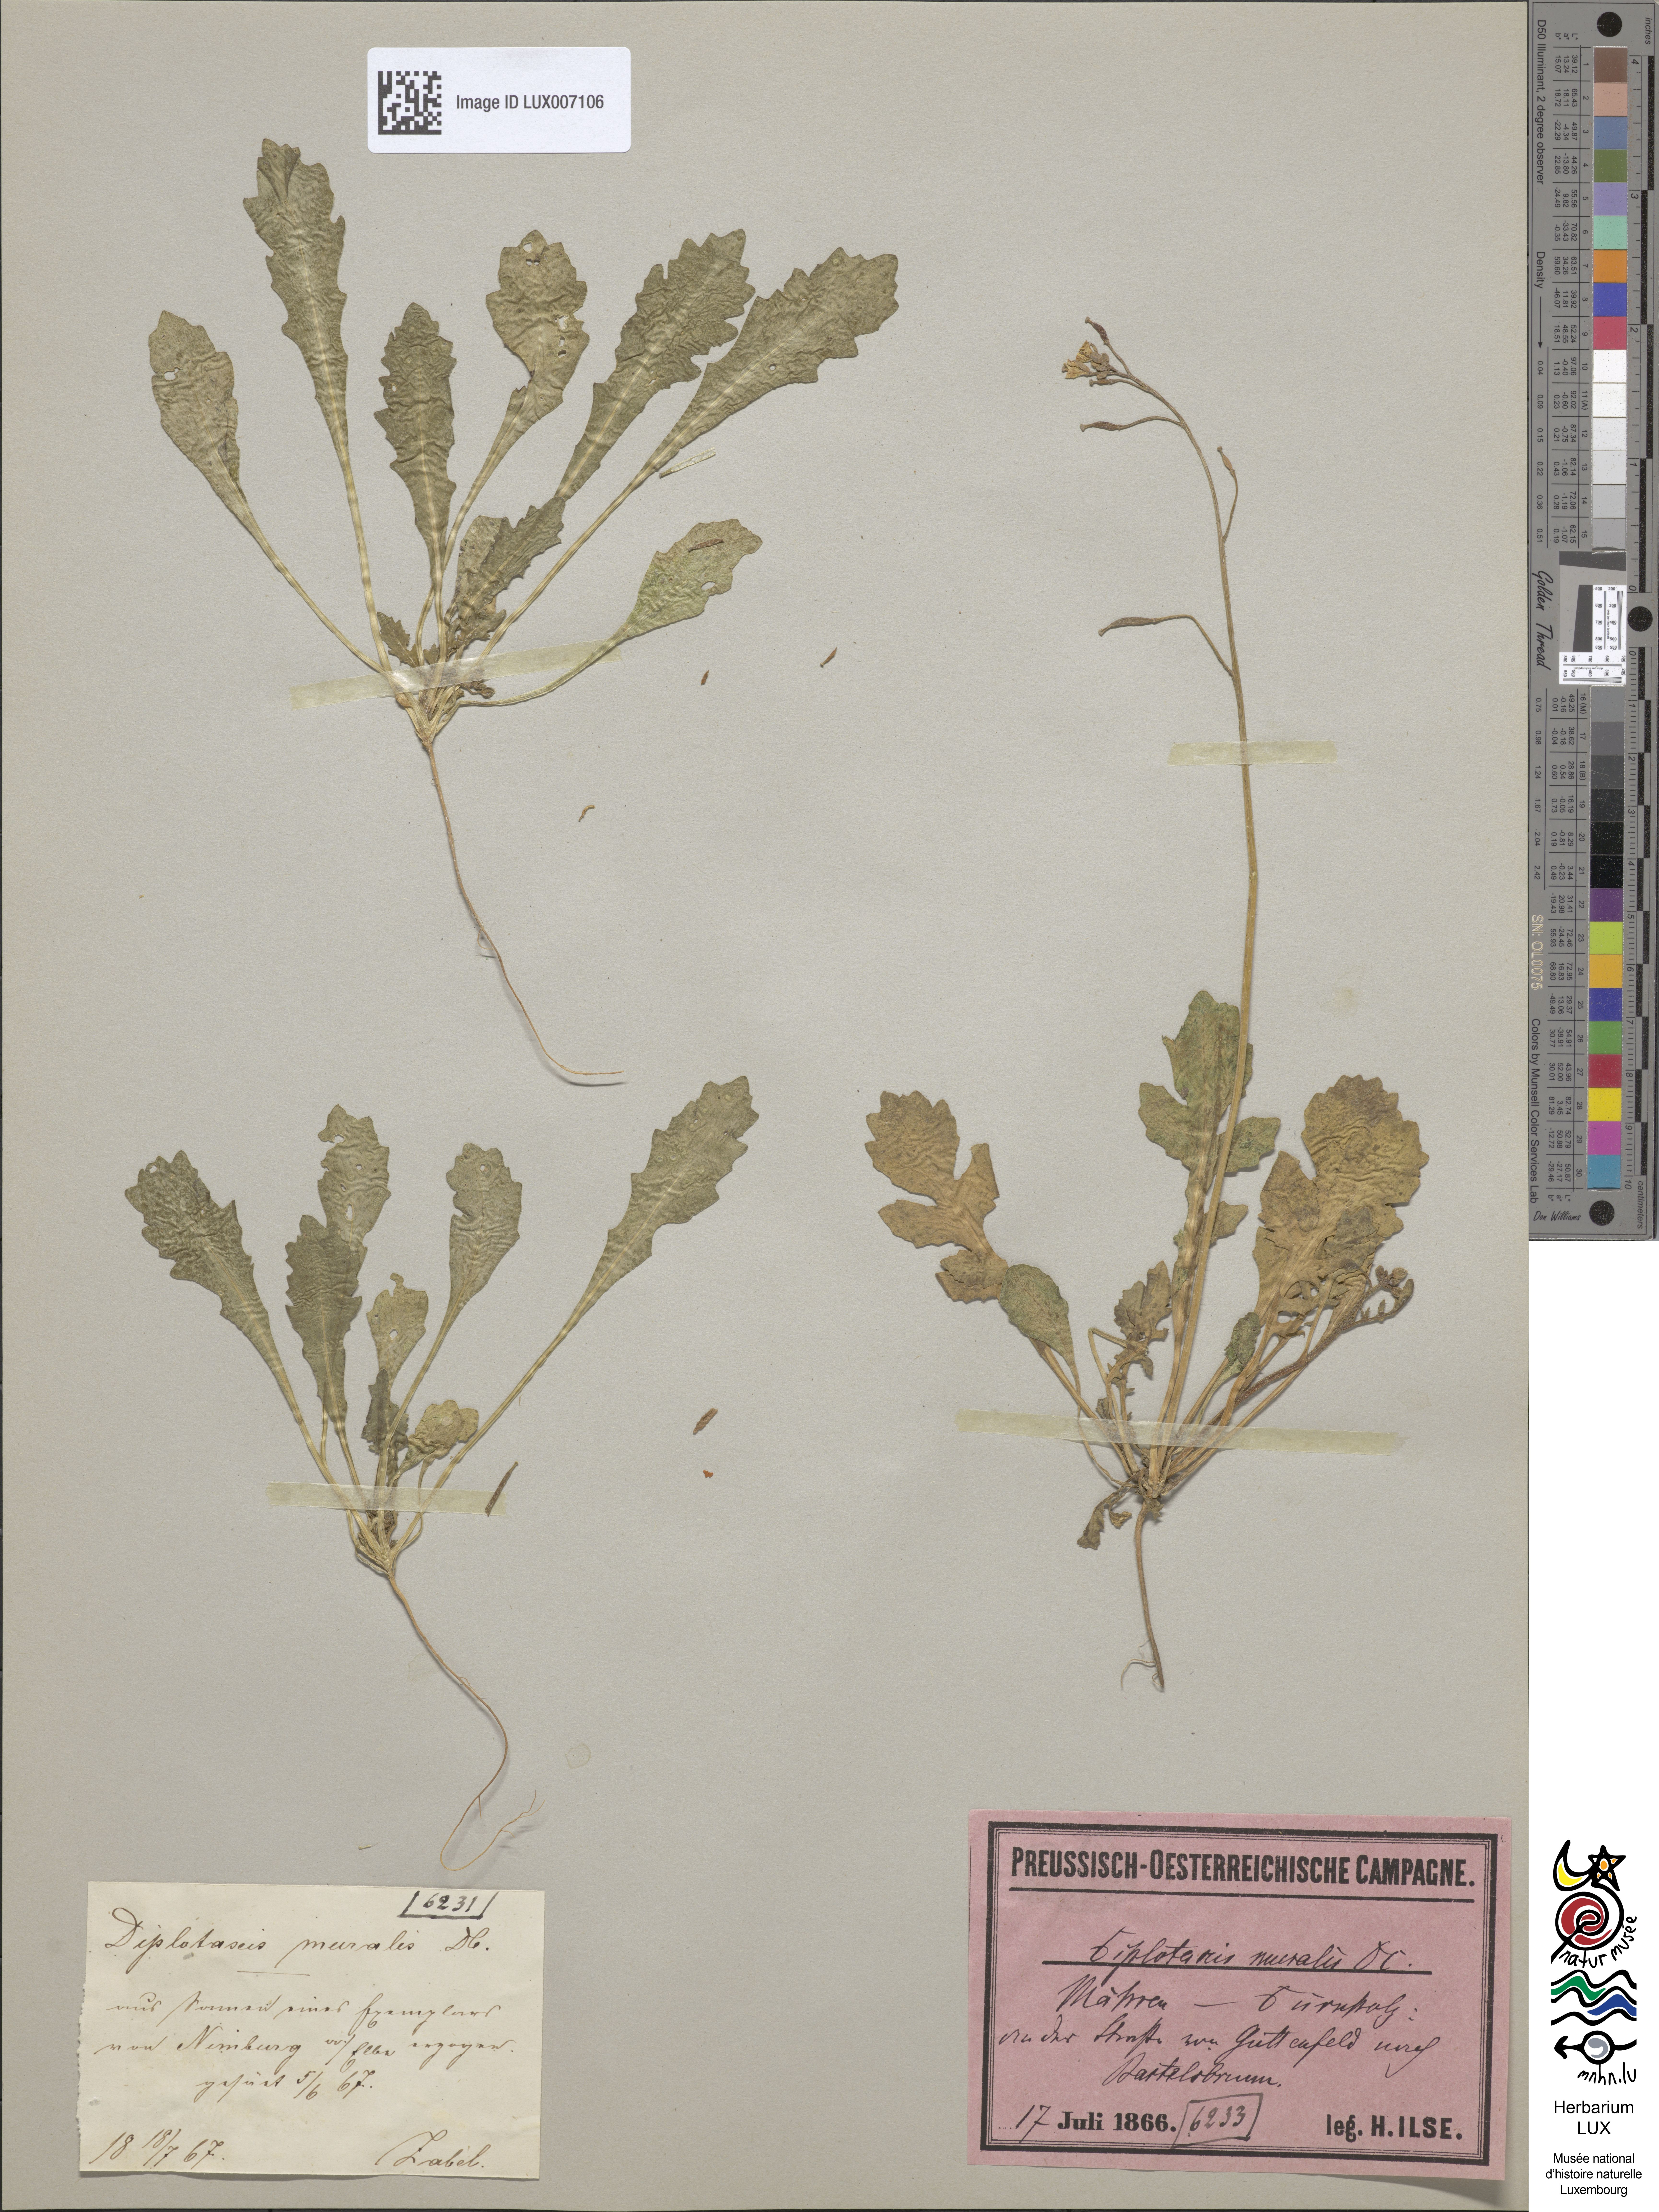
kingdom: Plantae
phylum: Tracheophyta
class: Magnoliopsida
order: Brassicales
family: Brassicaceae
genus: Diplotaxis
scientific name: Diplotaxis muralis
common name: Annual wall-rocket
